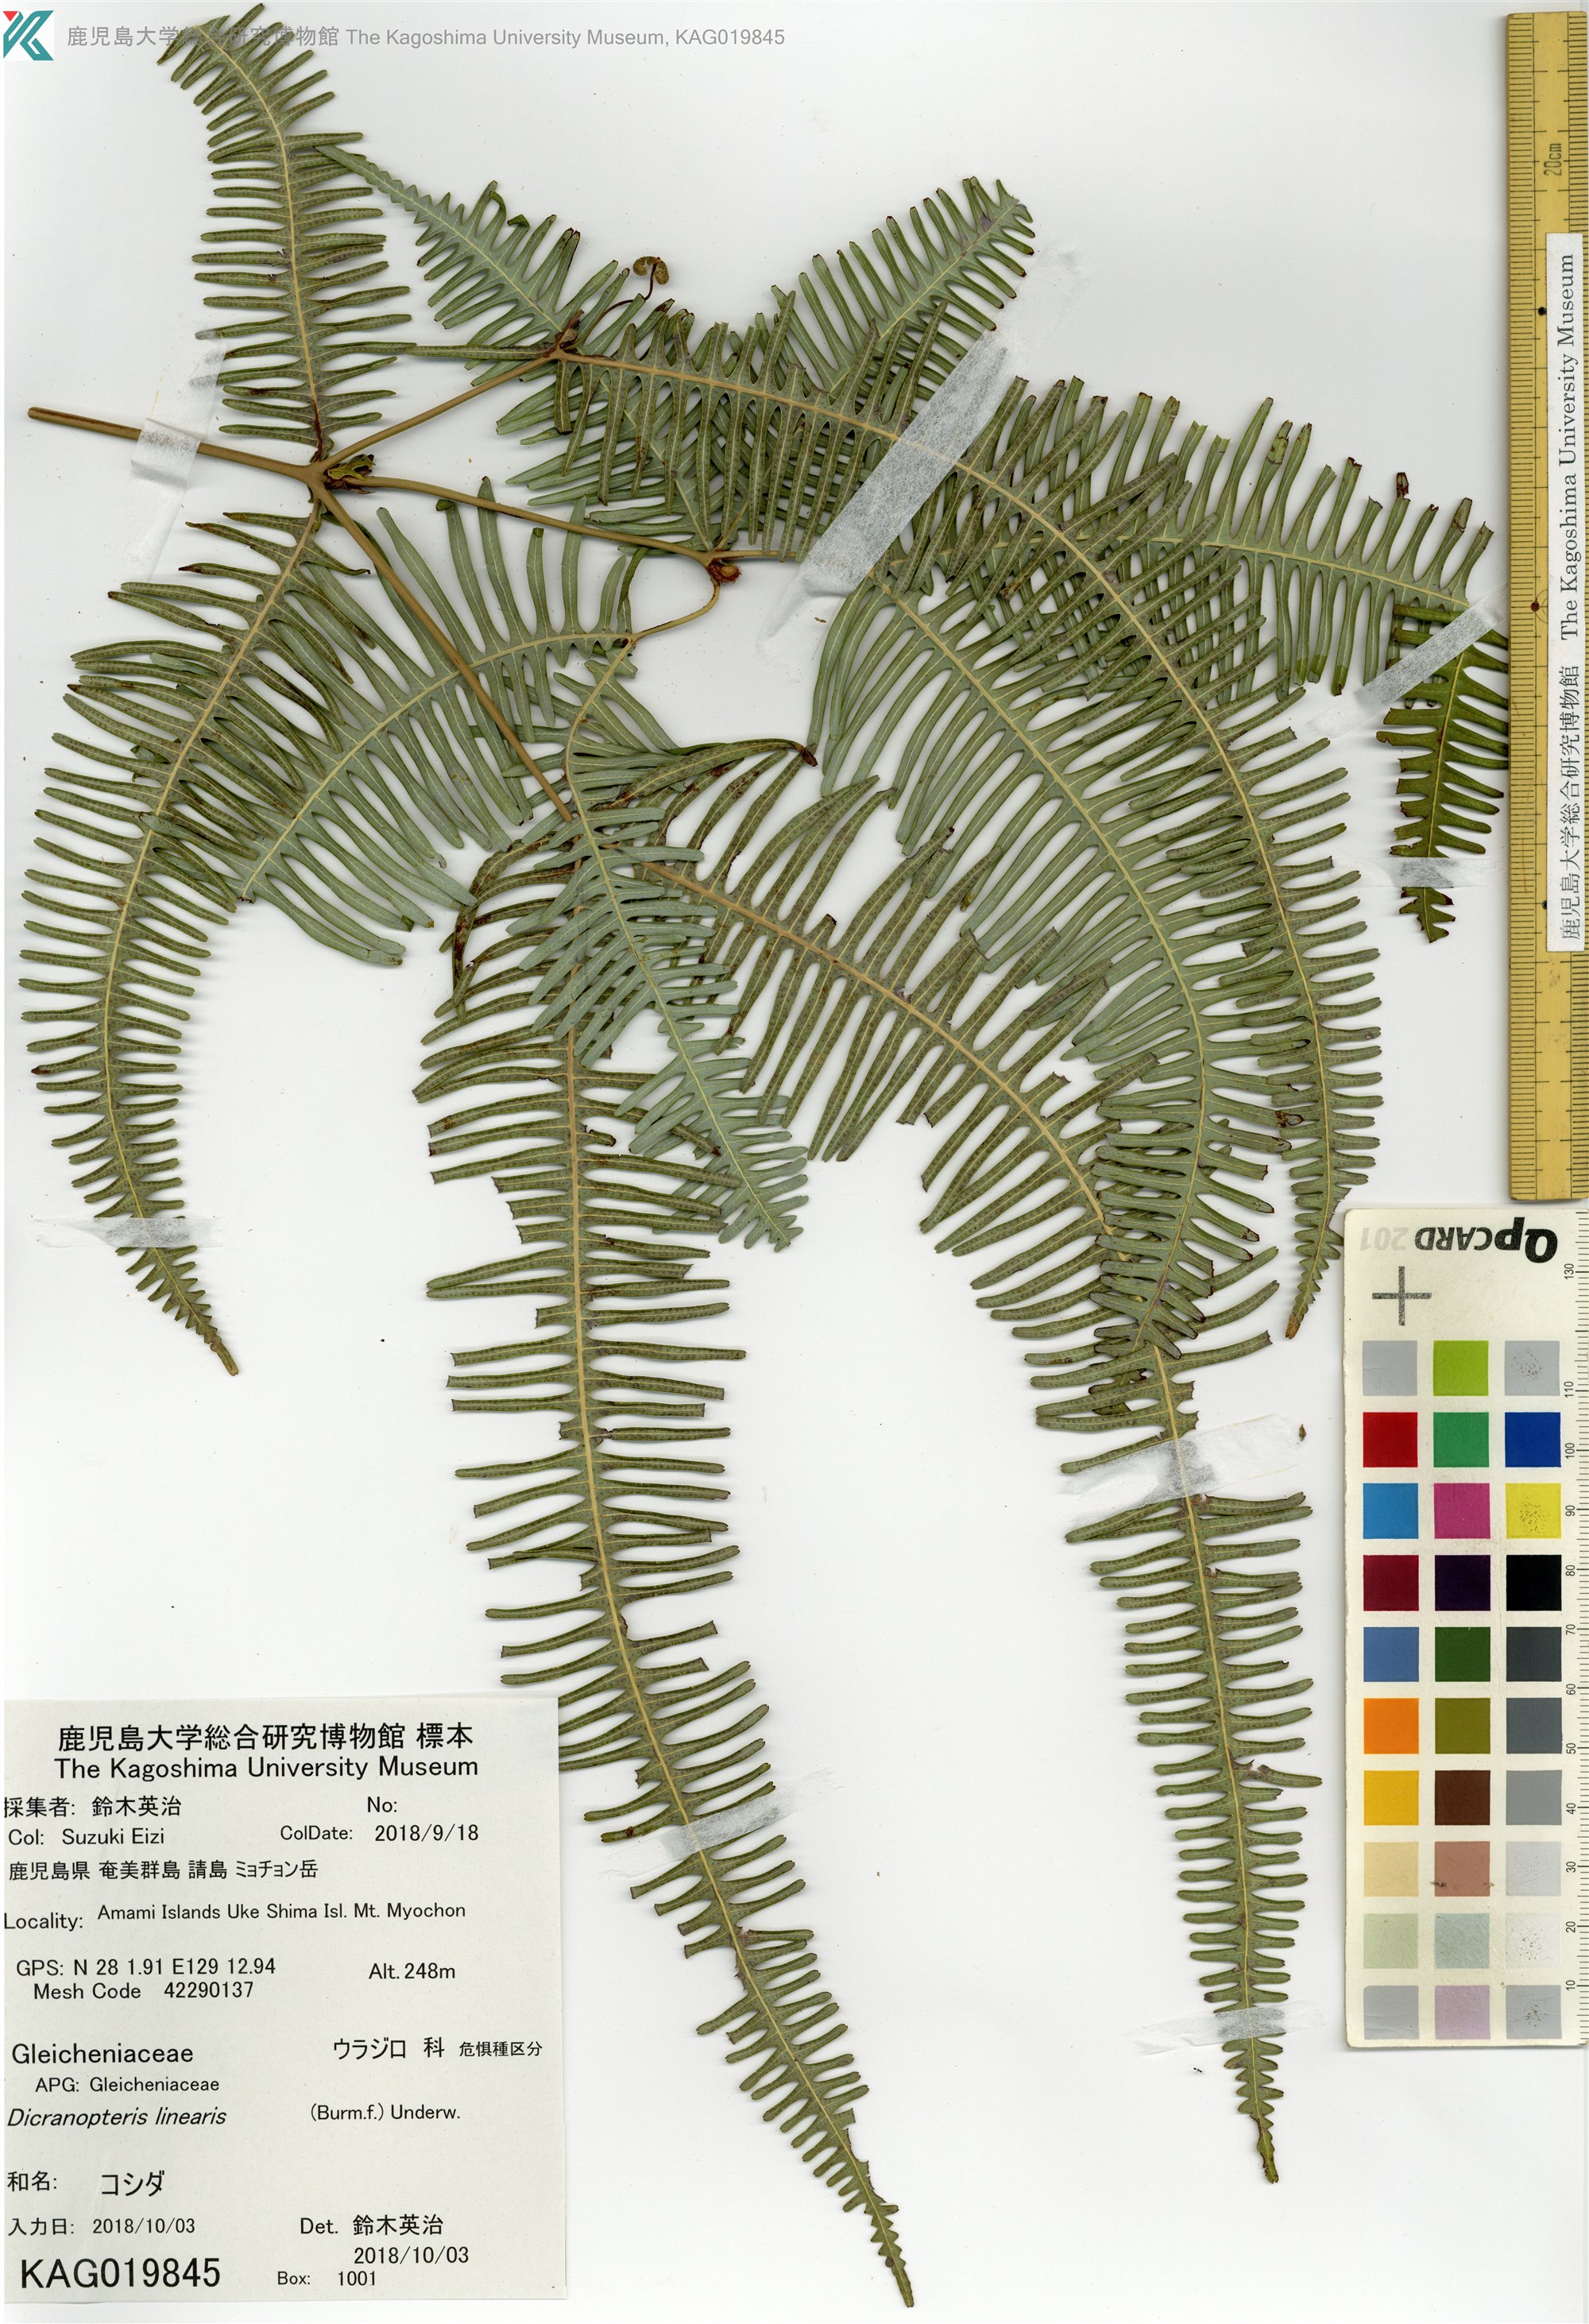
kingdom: Plantae
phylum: Tracheophyta
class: Polypodiopsida
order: Gleicheniales
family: Gleicheniaceae
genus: Dicranopteris
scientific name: Dicranopteris pedata
